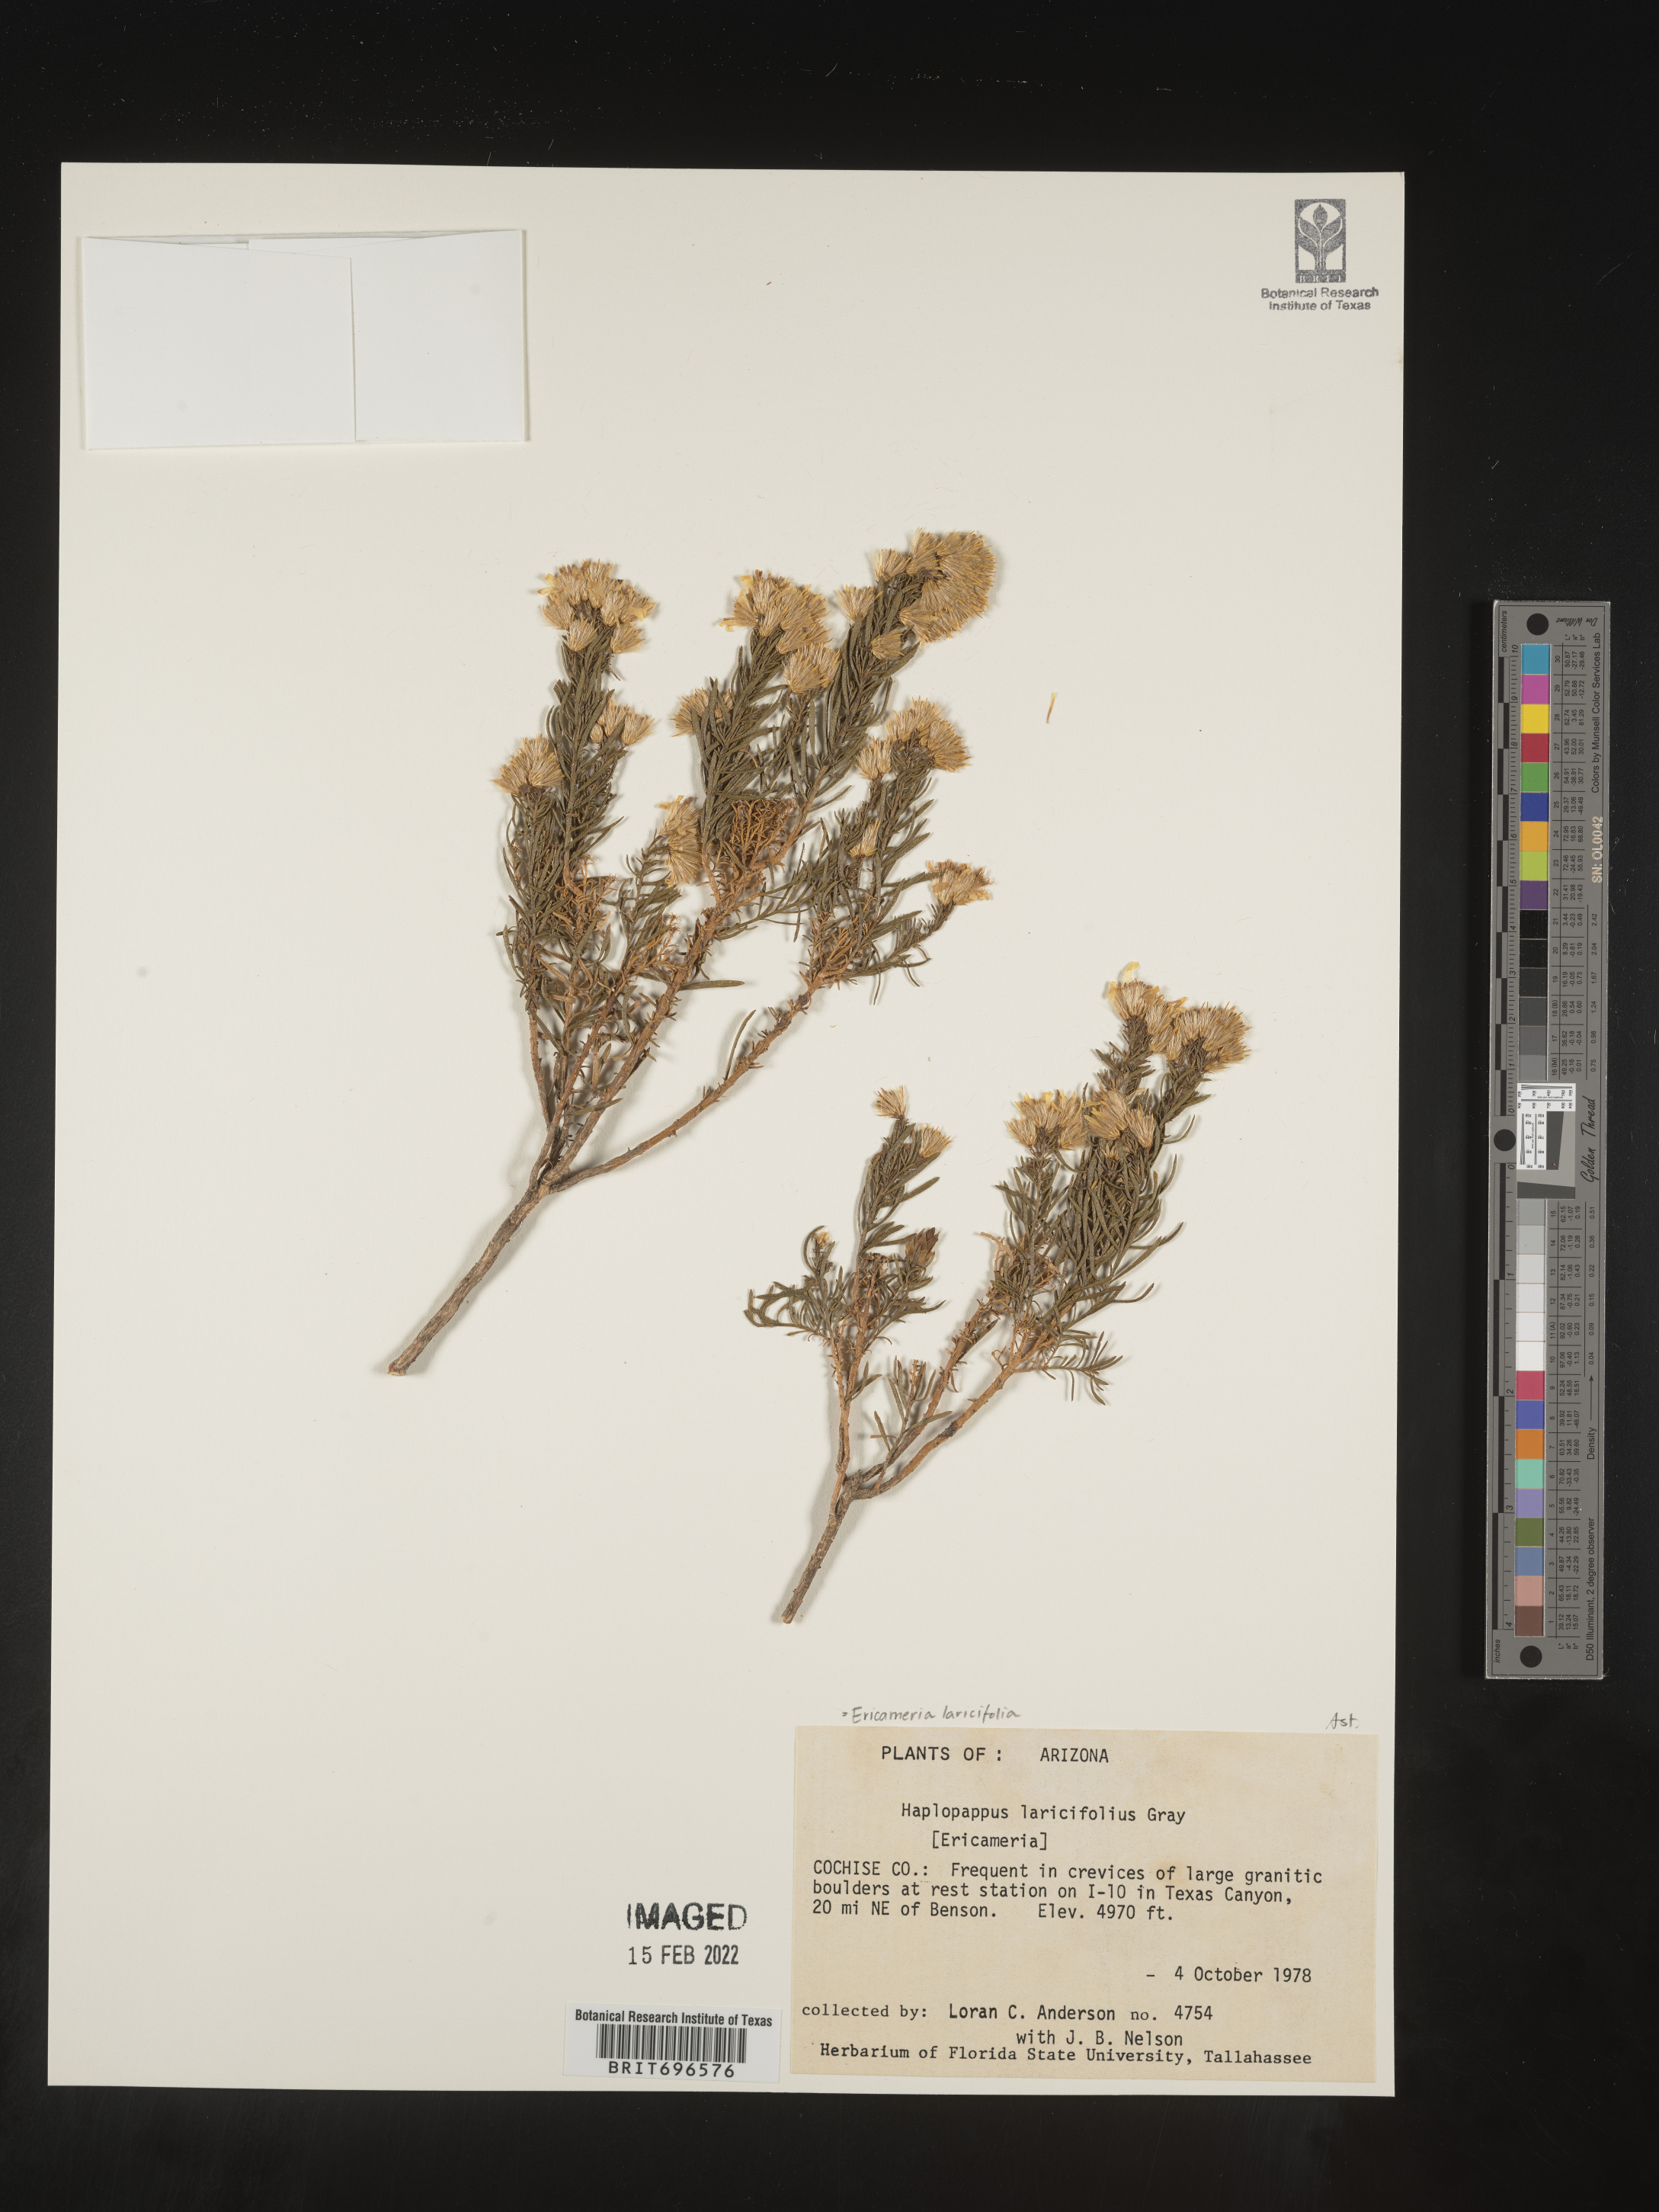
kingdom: Plantae
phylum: Tracheophyta
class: Magnoliopsida
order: Asterales
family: Asteraceae
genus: Ericameria
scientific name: Ericameria laricifolia
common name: Turpentine-bush
